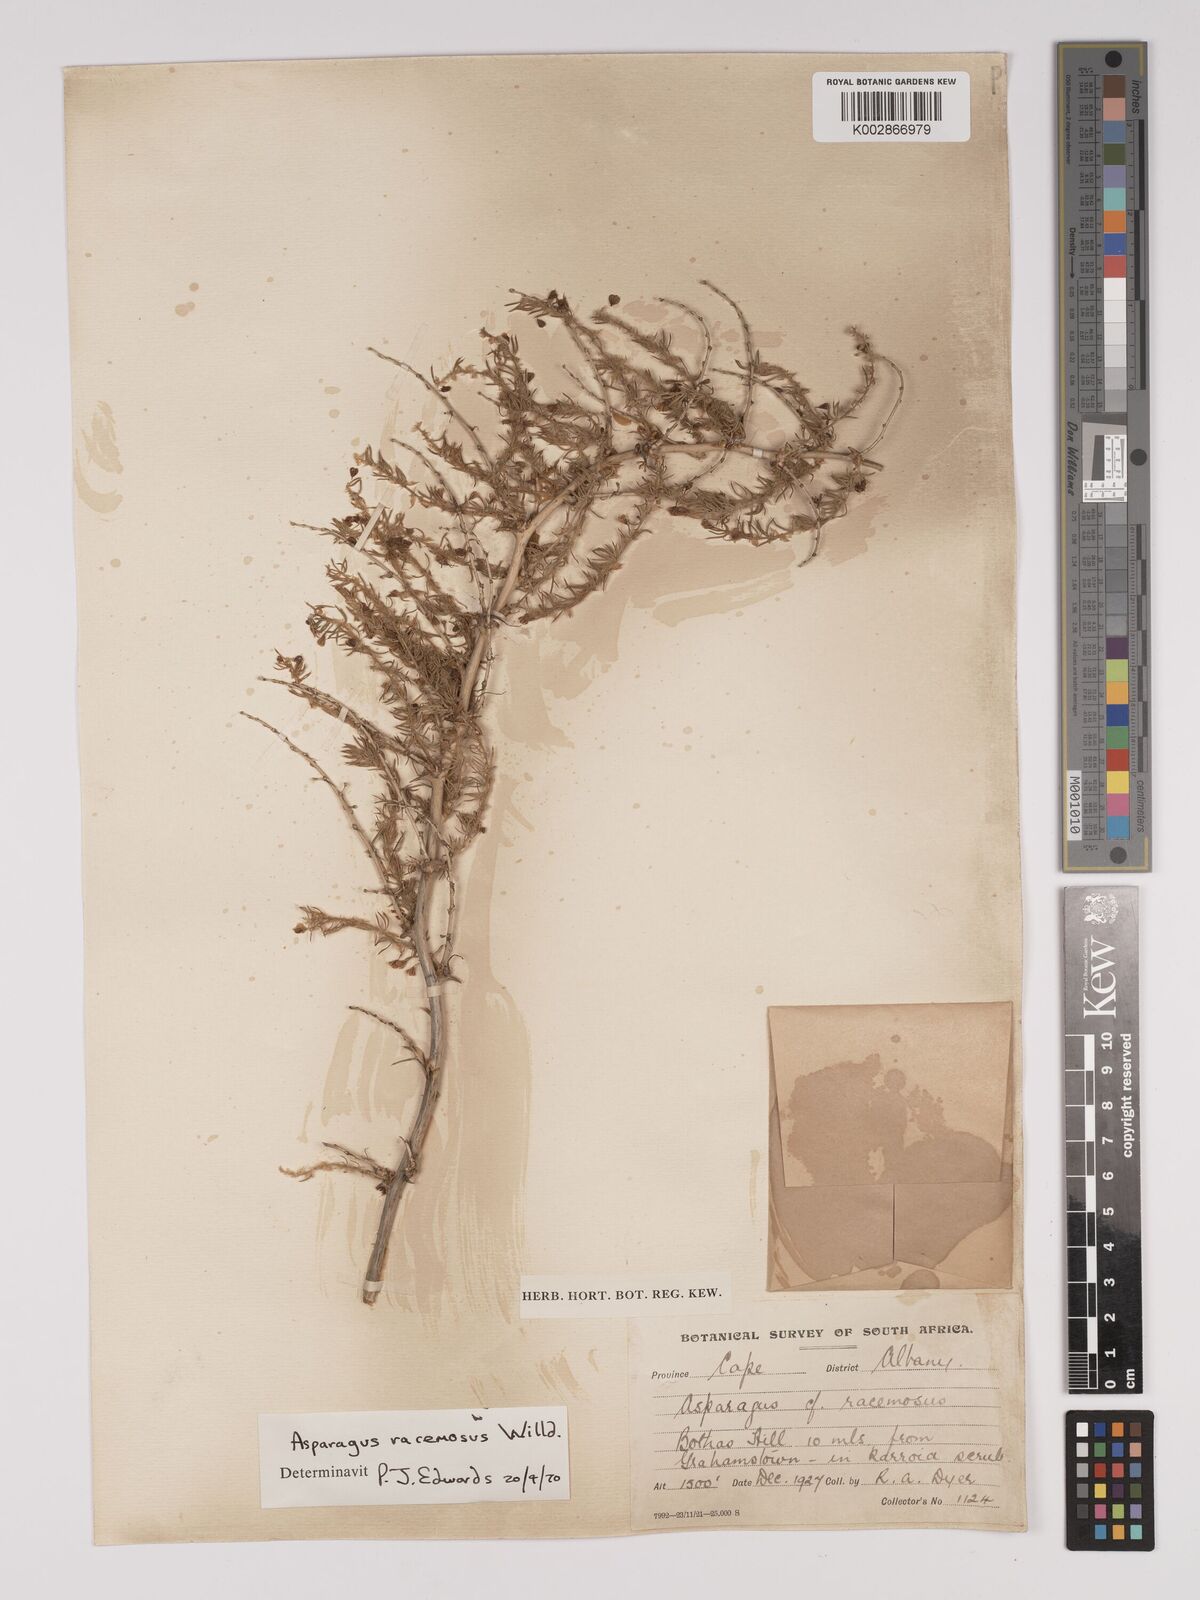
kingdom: Plantae
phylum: Tracheophyta
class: Liliopsida
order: Asparagales
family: Asparagaceae
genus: Asparagus
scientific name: Asparagus racemosus
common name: Asparagus-fern
